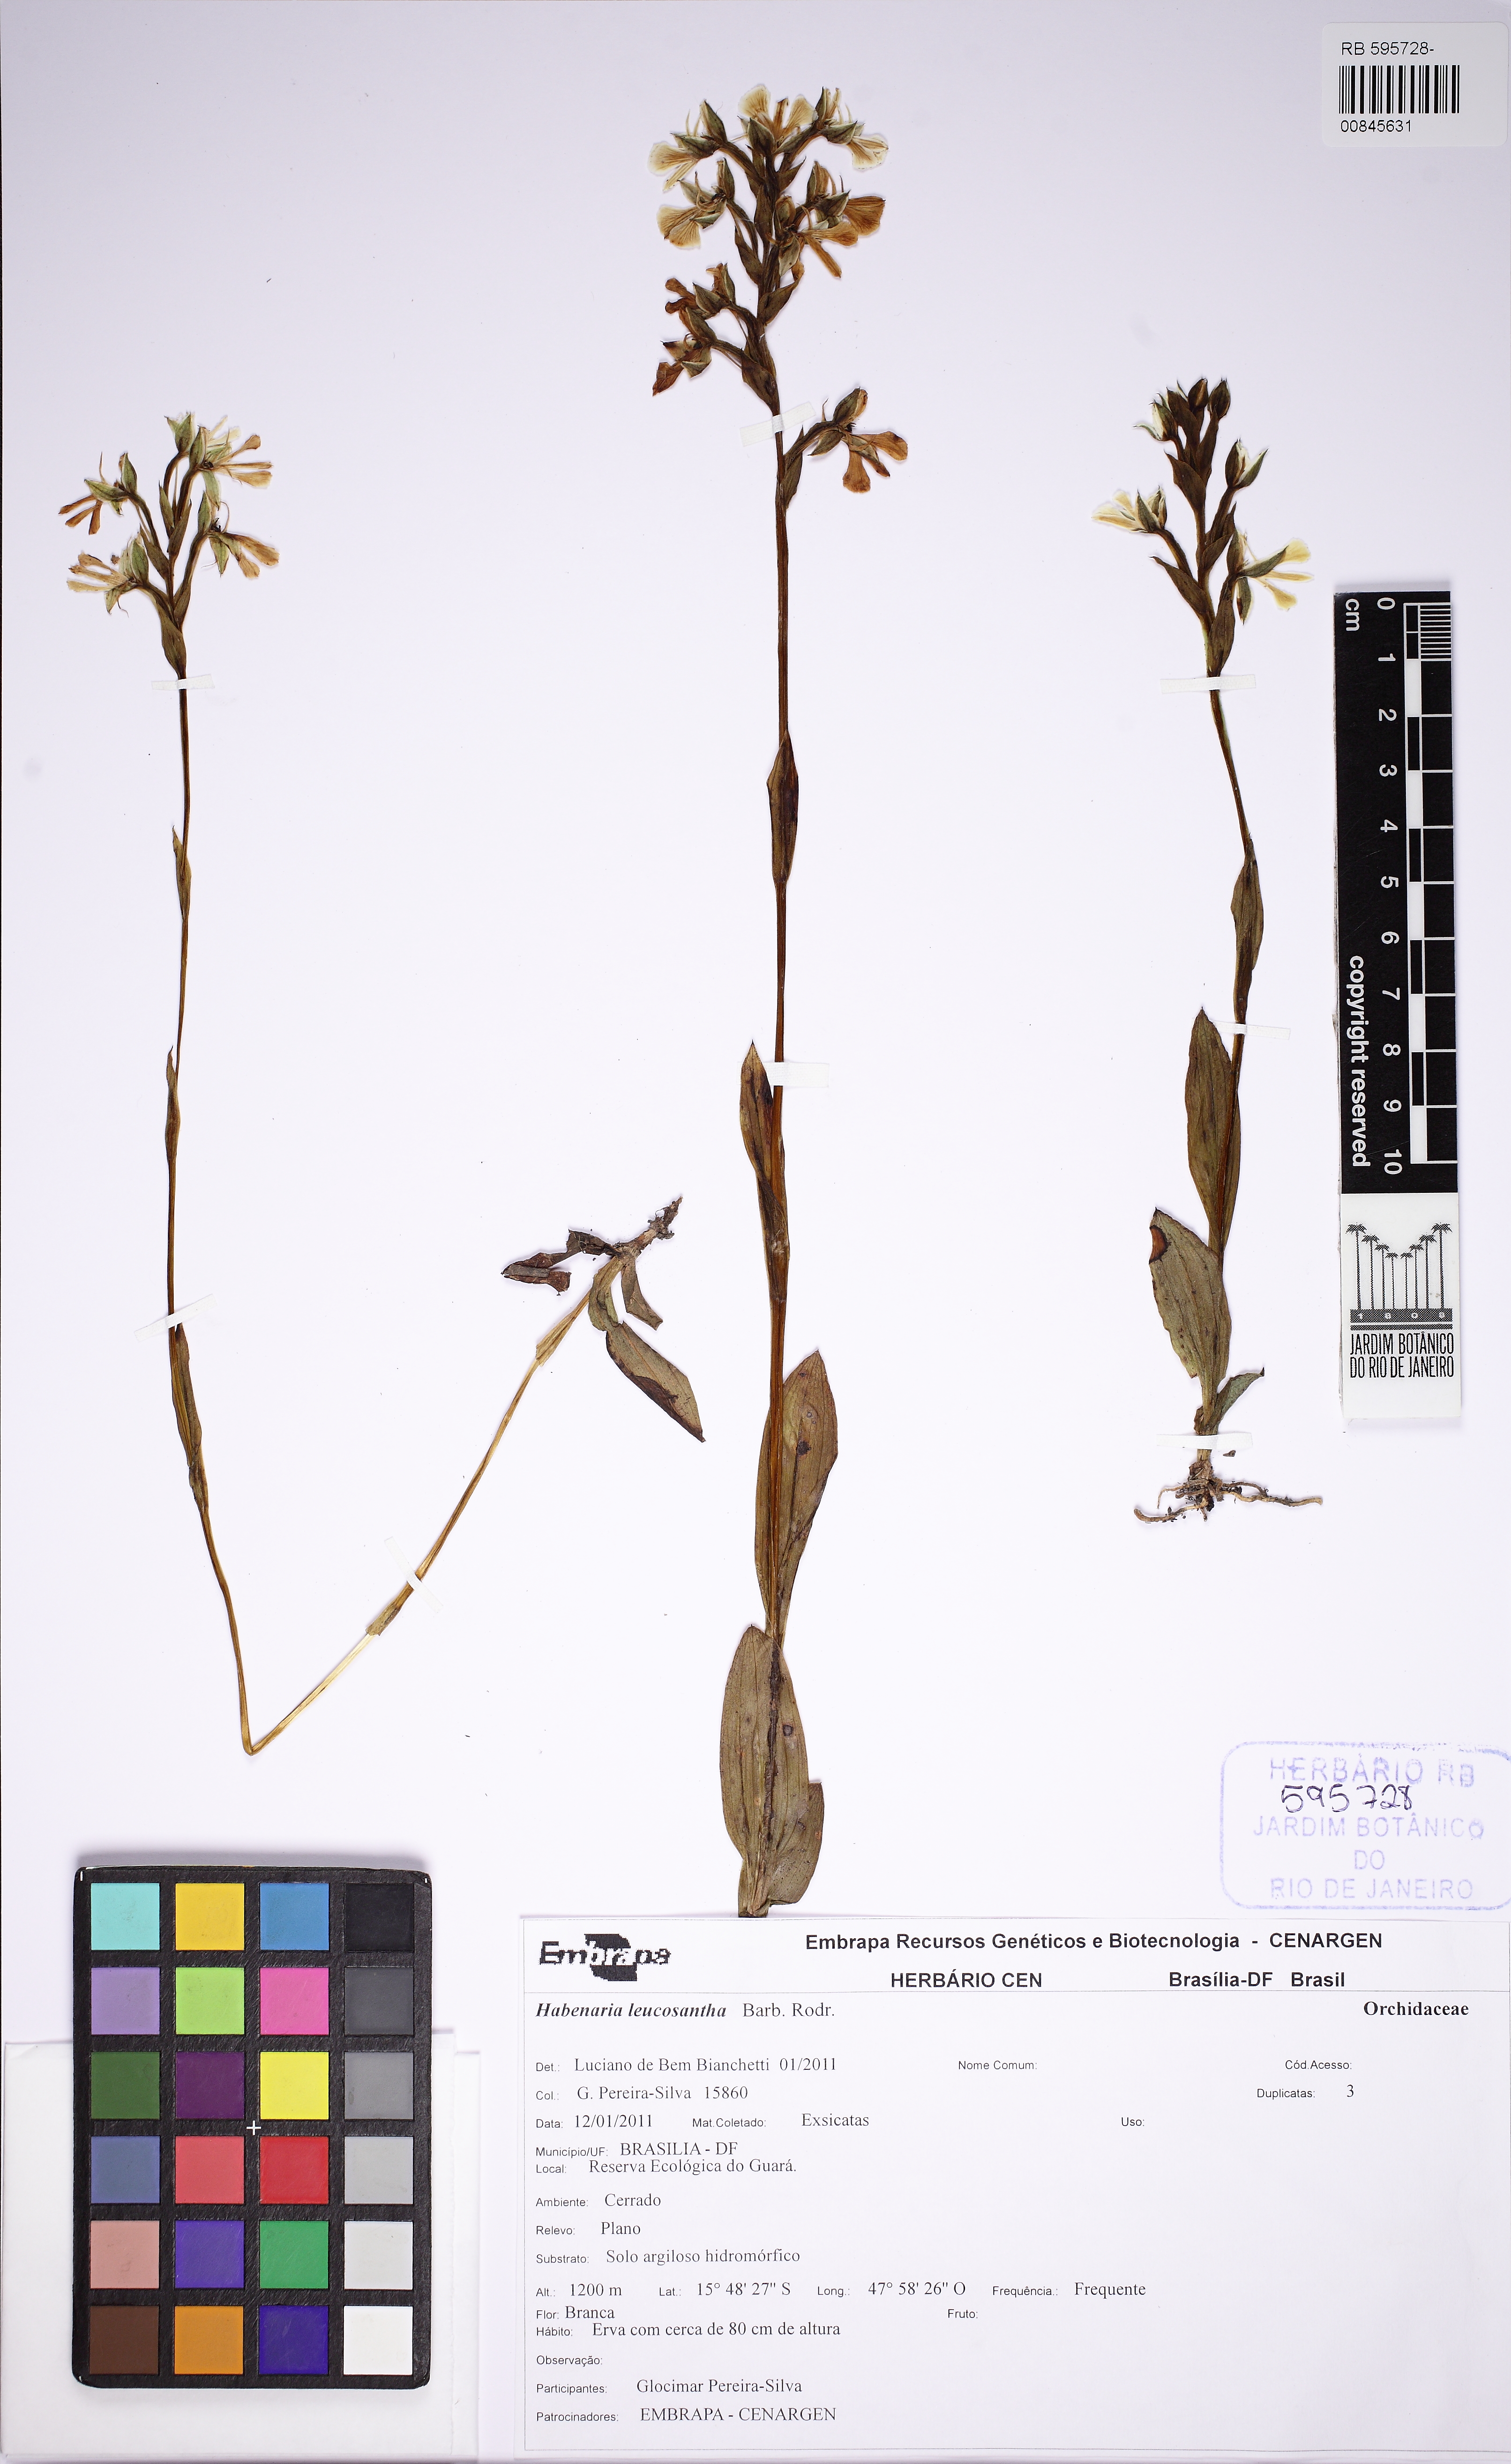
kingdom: Plantae
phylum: Tracheophyta
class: Liliopsida
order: Asparagales
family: Orchidaceae
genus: Habenaria
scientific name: Habenaria leucosantha
